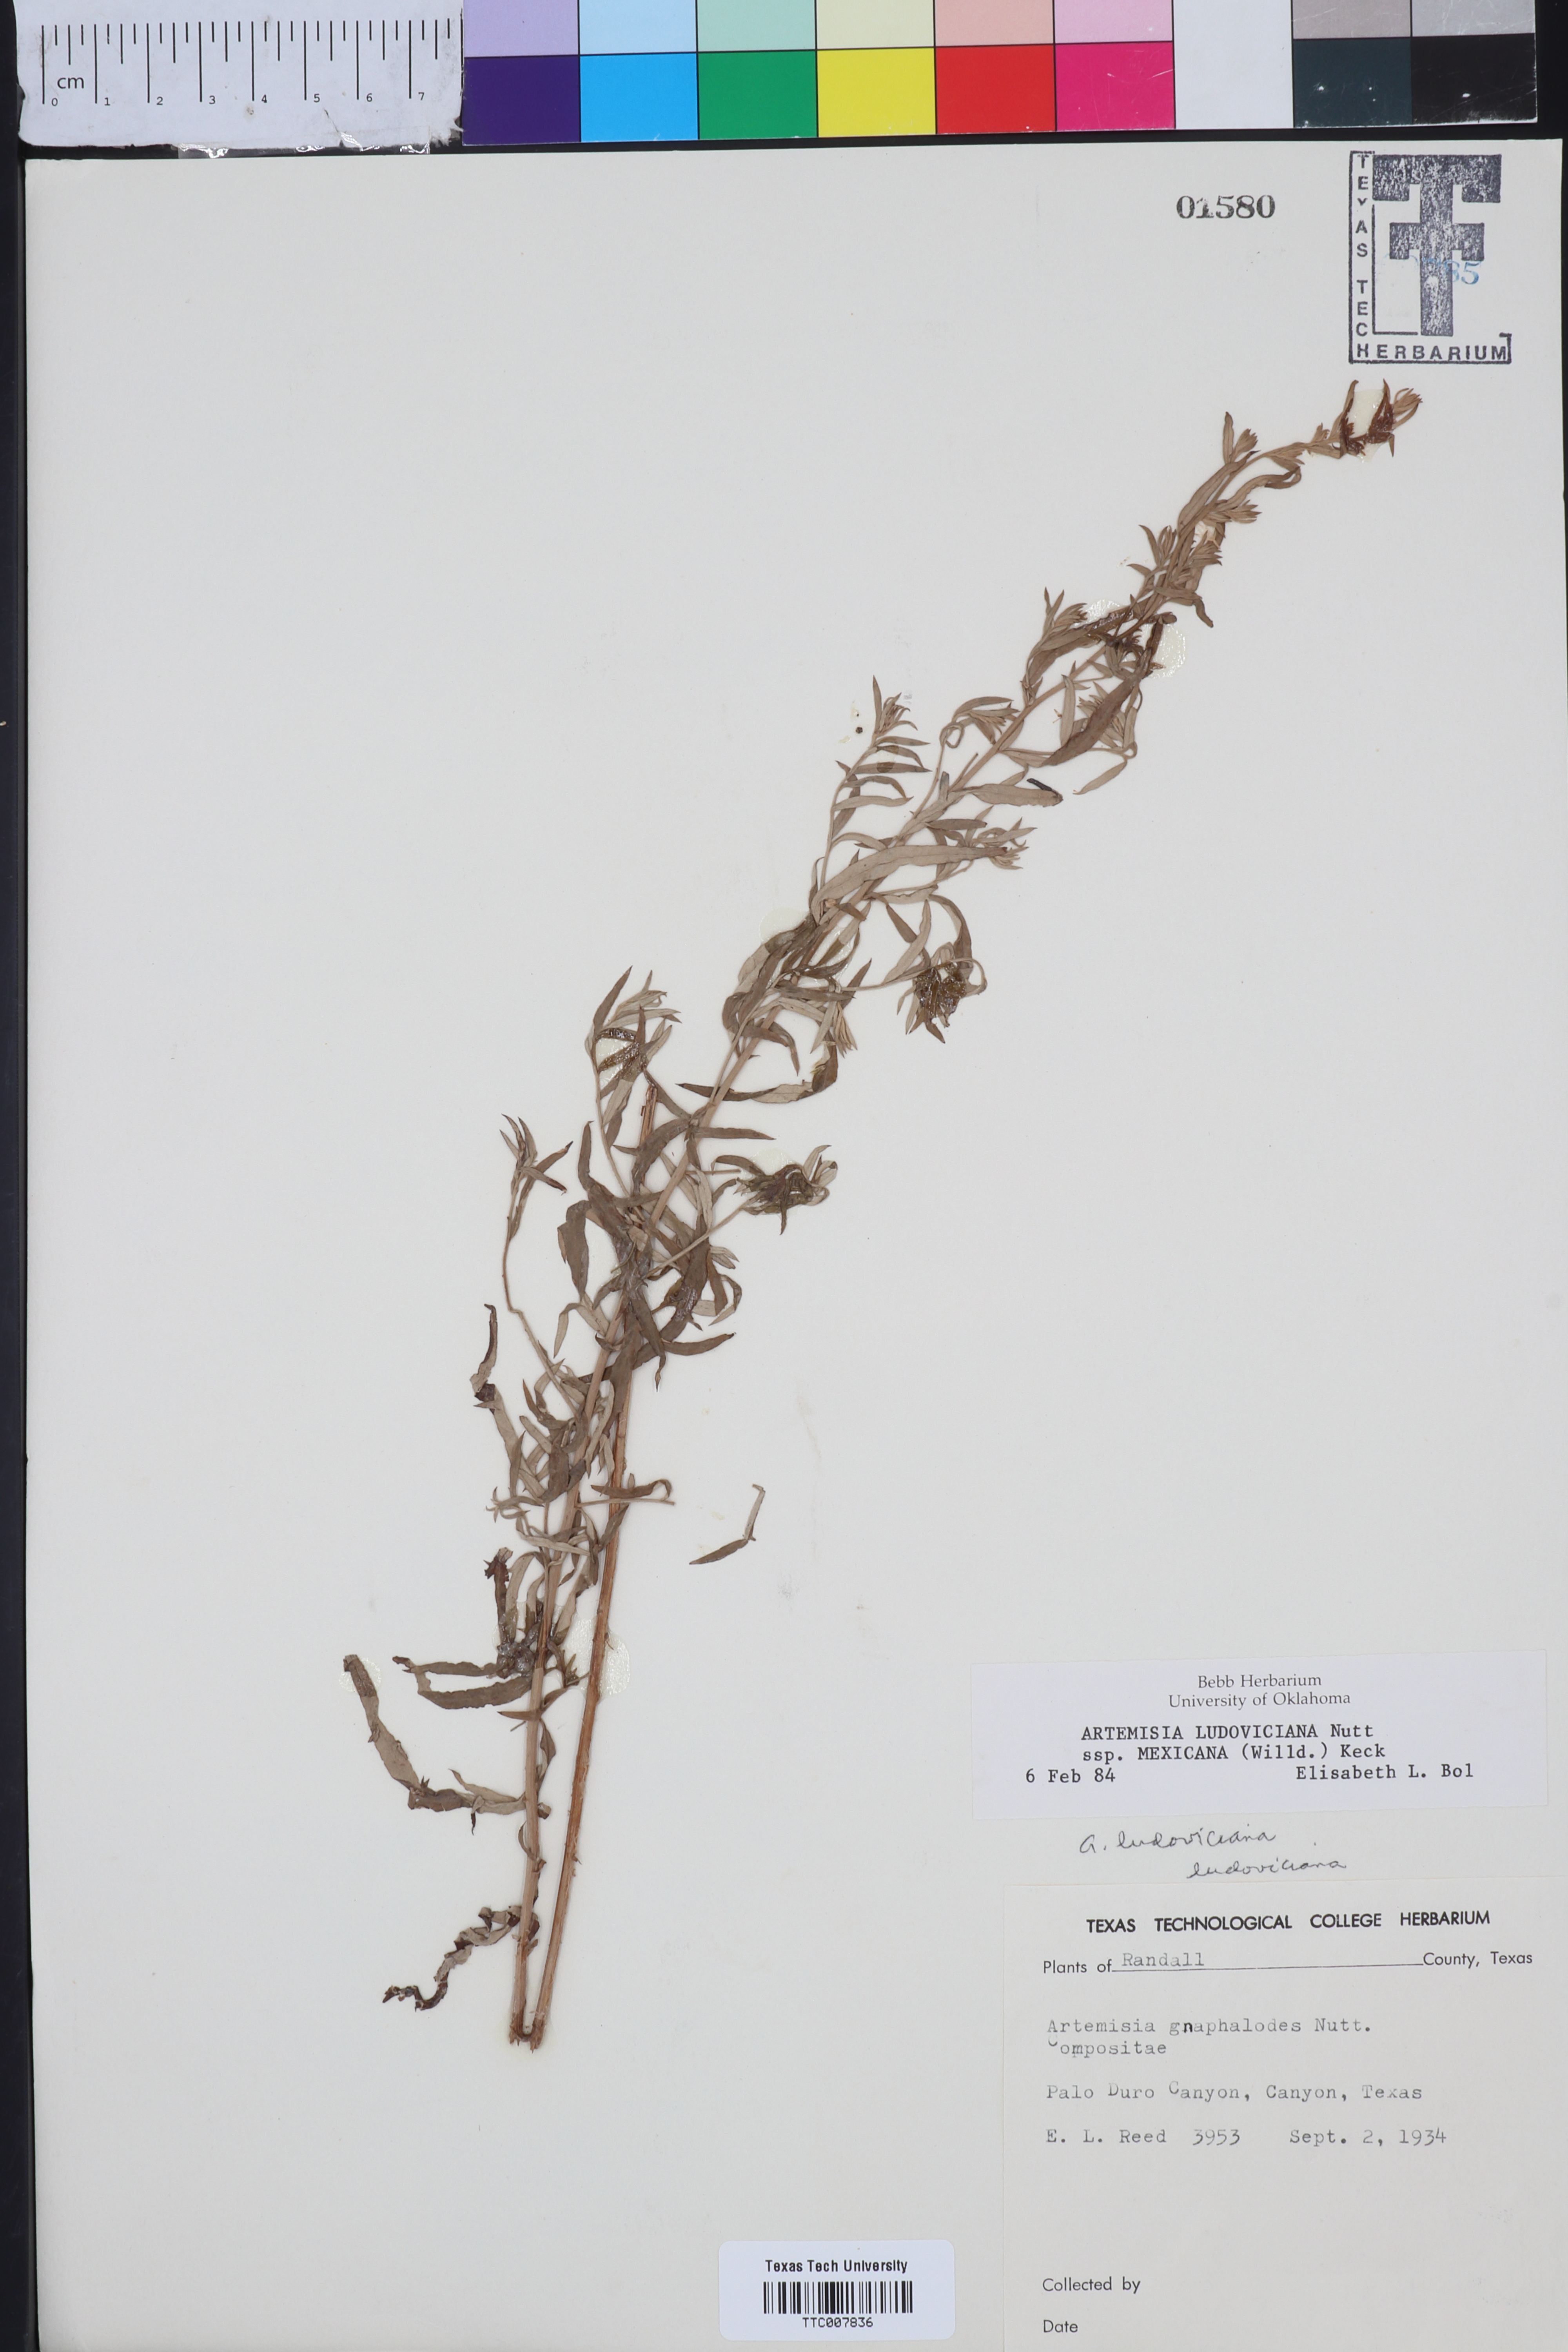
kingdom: Plantae
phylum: Tracheophyta
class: Magnoliopsida
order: Asterales
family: Asteraceae
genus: Artemisia
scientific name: Artemisia ludoviciana
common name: Western mugwort
